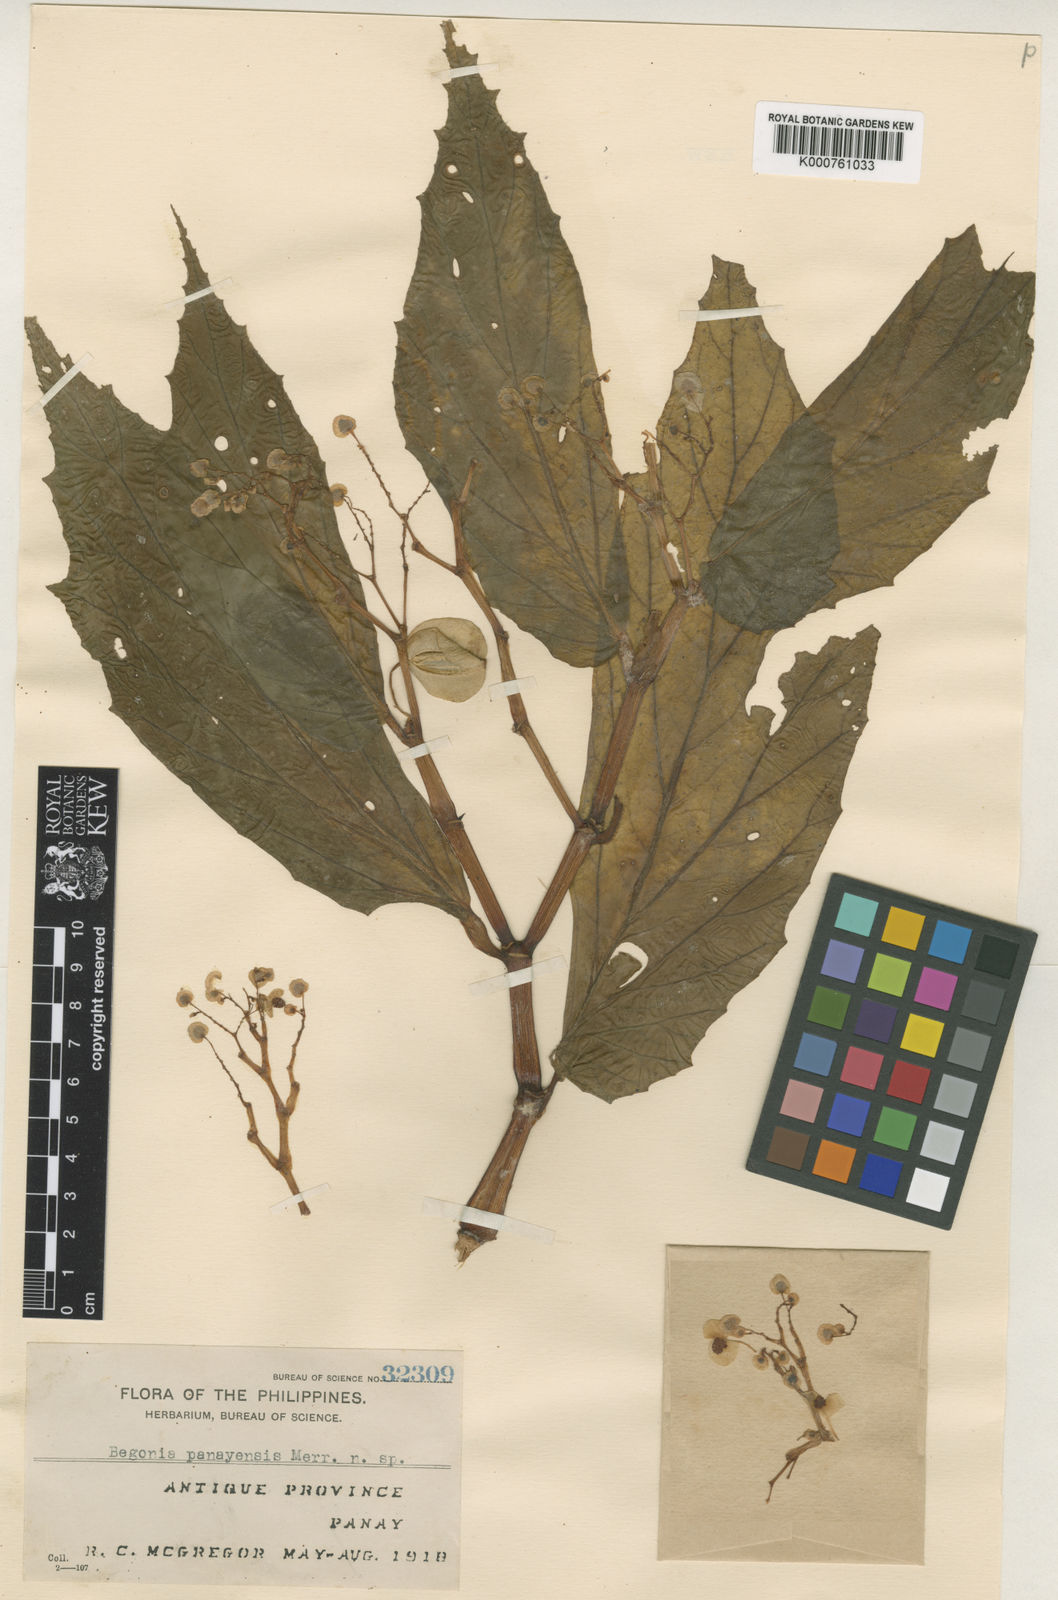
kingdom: Plantae
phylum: Tracheophyta
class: Magnoliopsida
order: Cucurbitales
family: Begoniaceae
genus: Begonia
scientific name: Begonia panayensis
